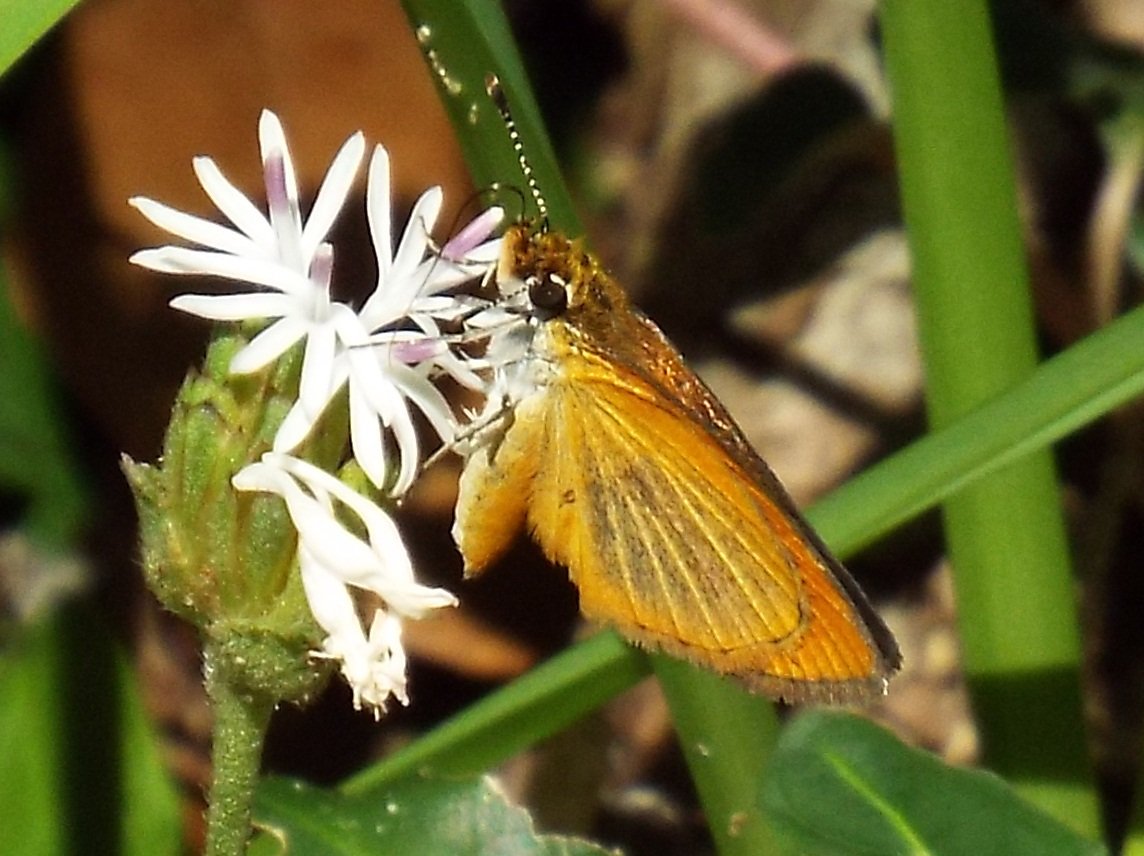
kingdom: Animalia
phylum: Arthropoda
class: Insecta
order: Lepidoptera
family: Hesperiidae
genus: Ancyloxypha
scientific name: Ancyloxypha numitor
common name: Least Skipper
